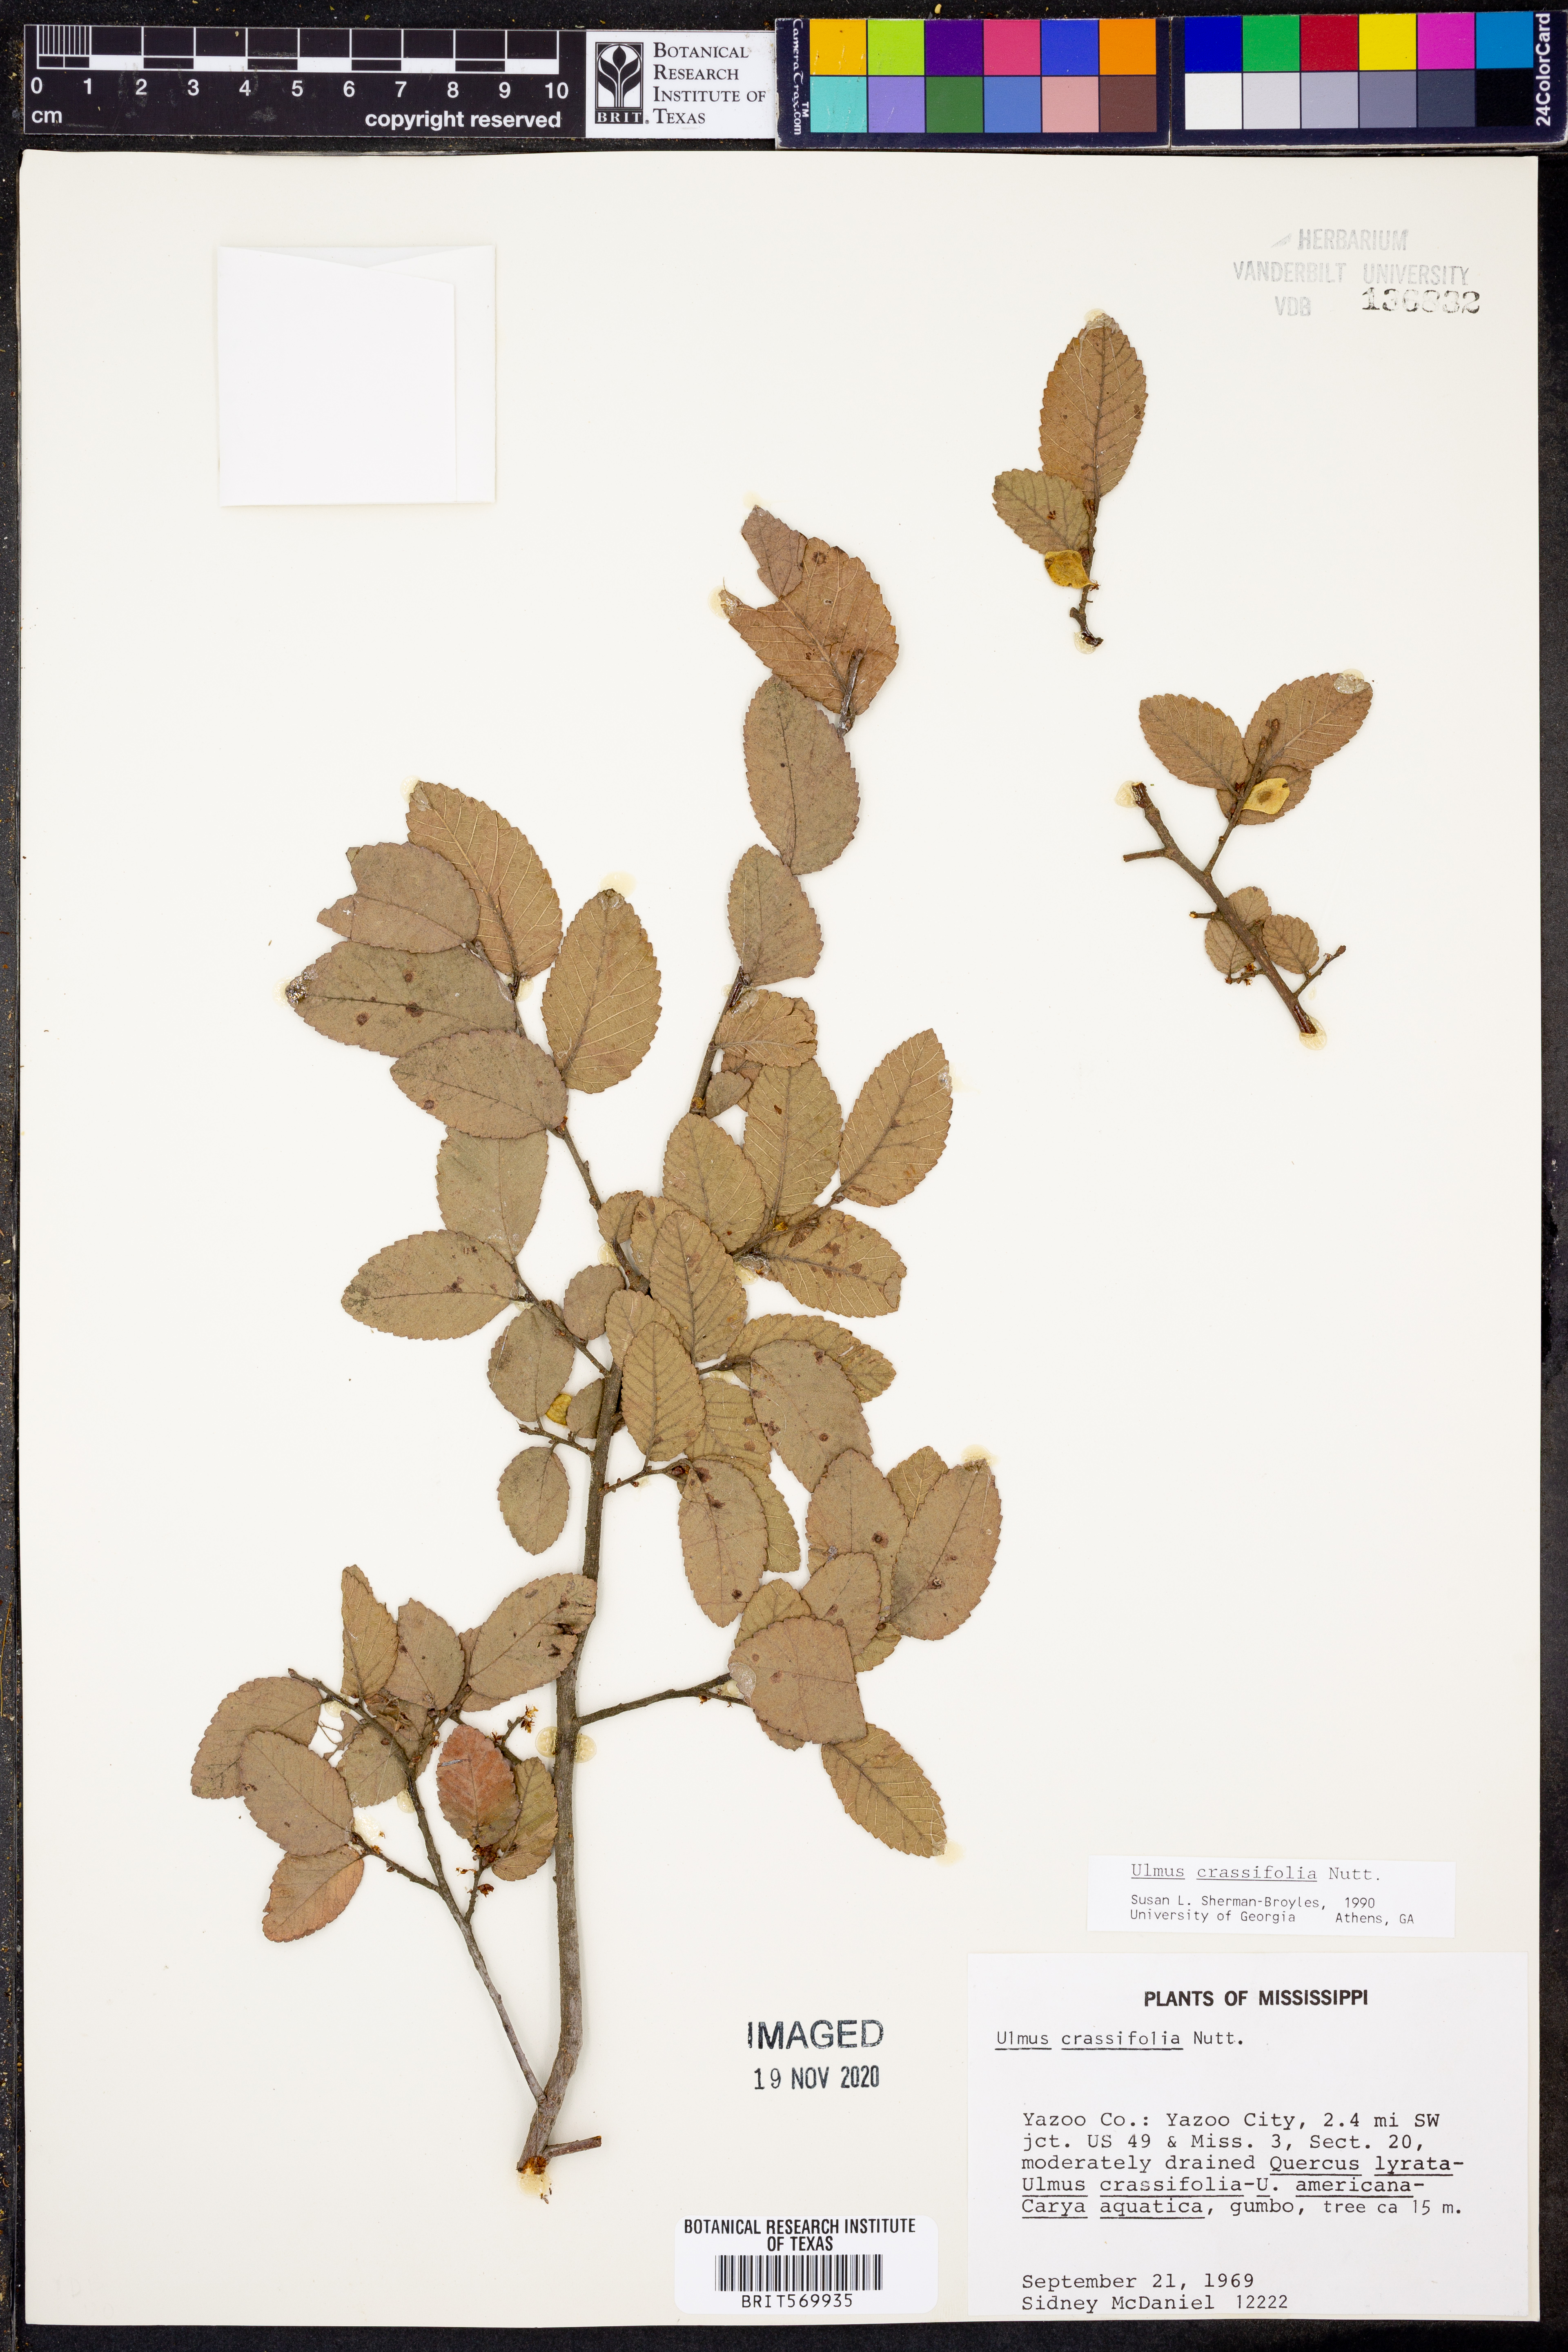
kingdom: Plantae
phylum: Tracheophyta
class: Magnoliopsida
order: Rosales
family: Ulmaceae
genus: Ulmus
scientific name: Ulmus crassifolia
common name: Basket elm
